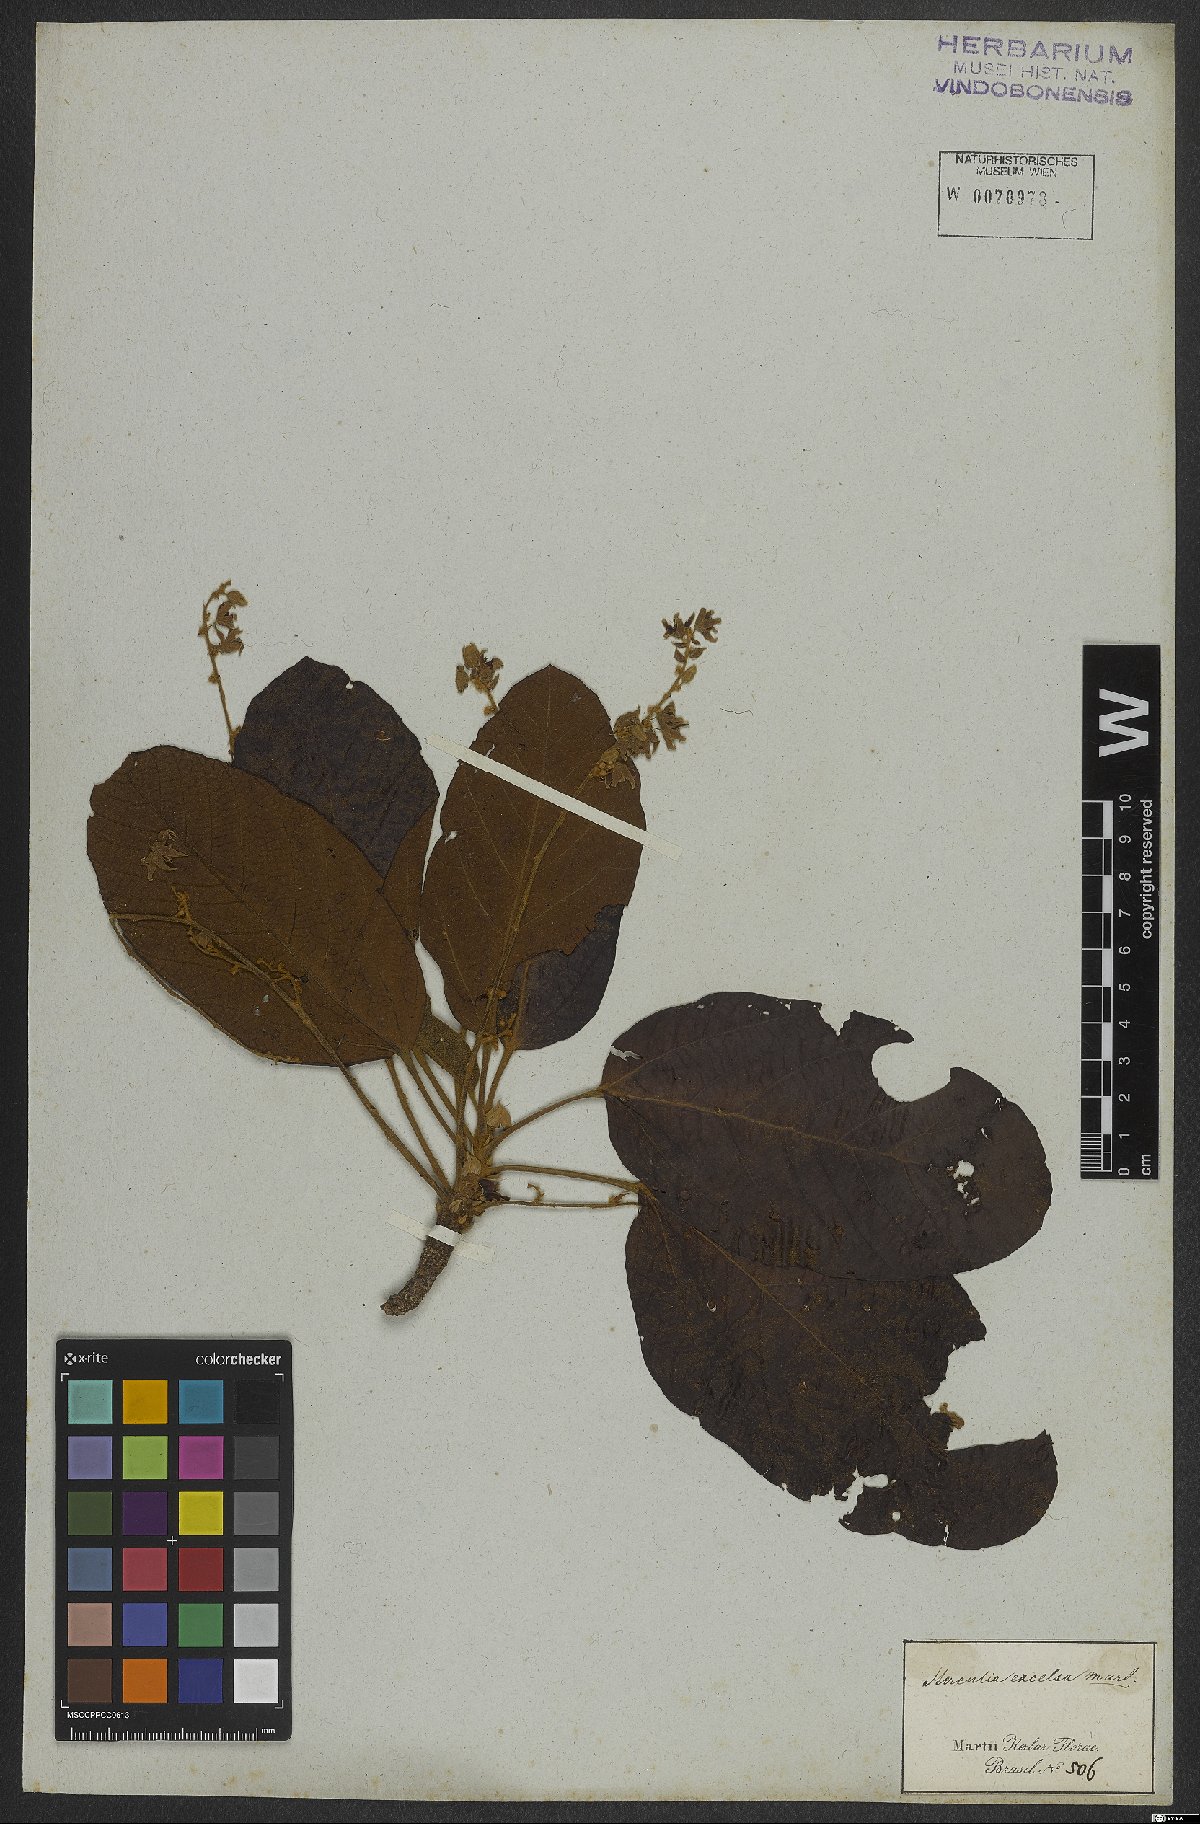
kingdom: Plantae
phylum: Tracheophyta
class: Magnoliopsida
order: Malvales
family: Malvaceae
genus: Sterculia
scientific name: Sterculia excelsa
